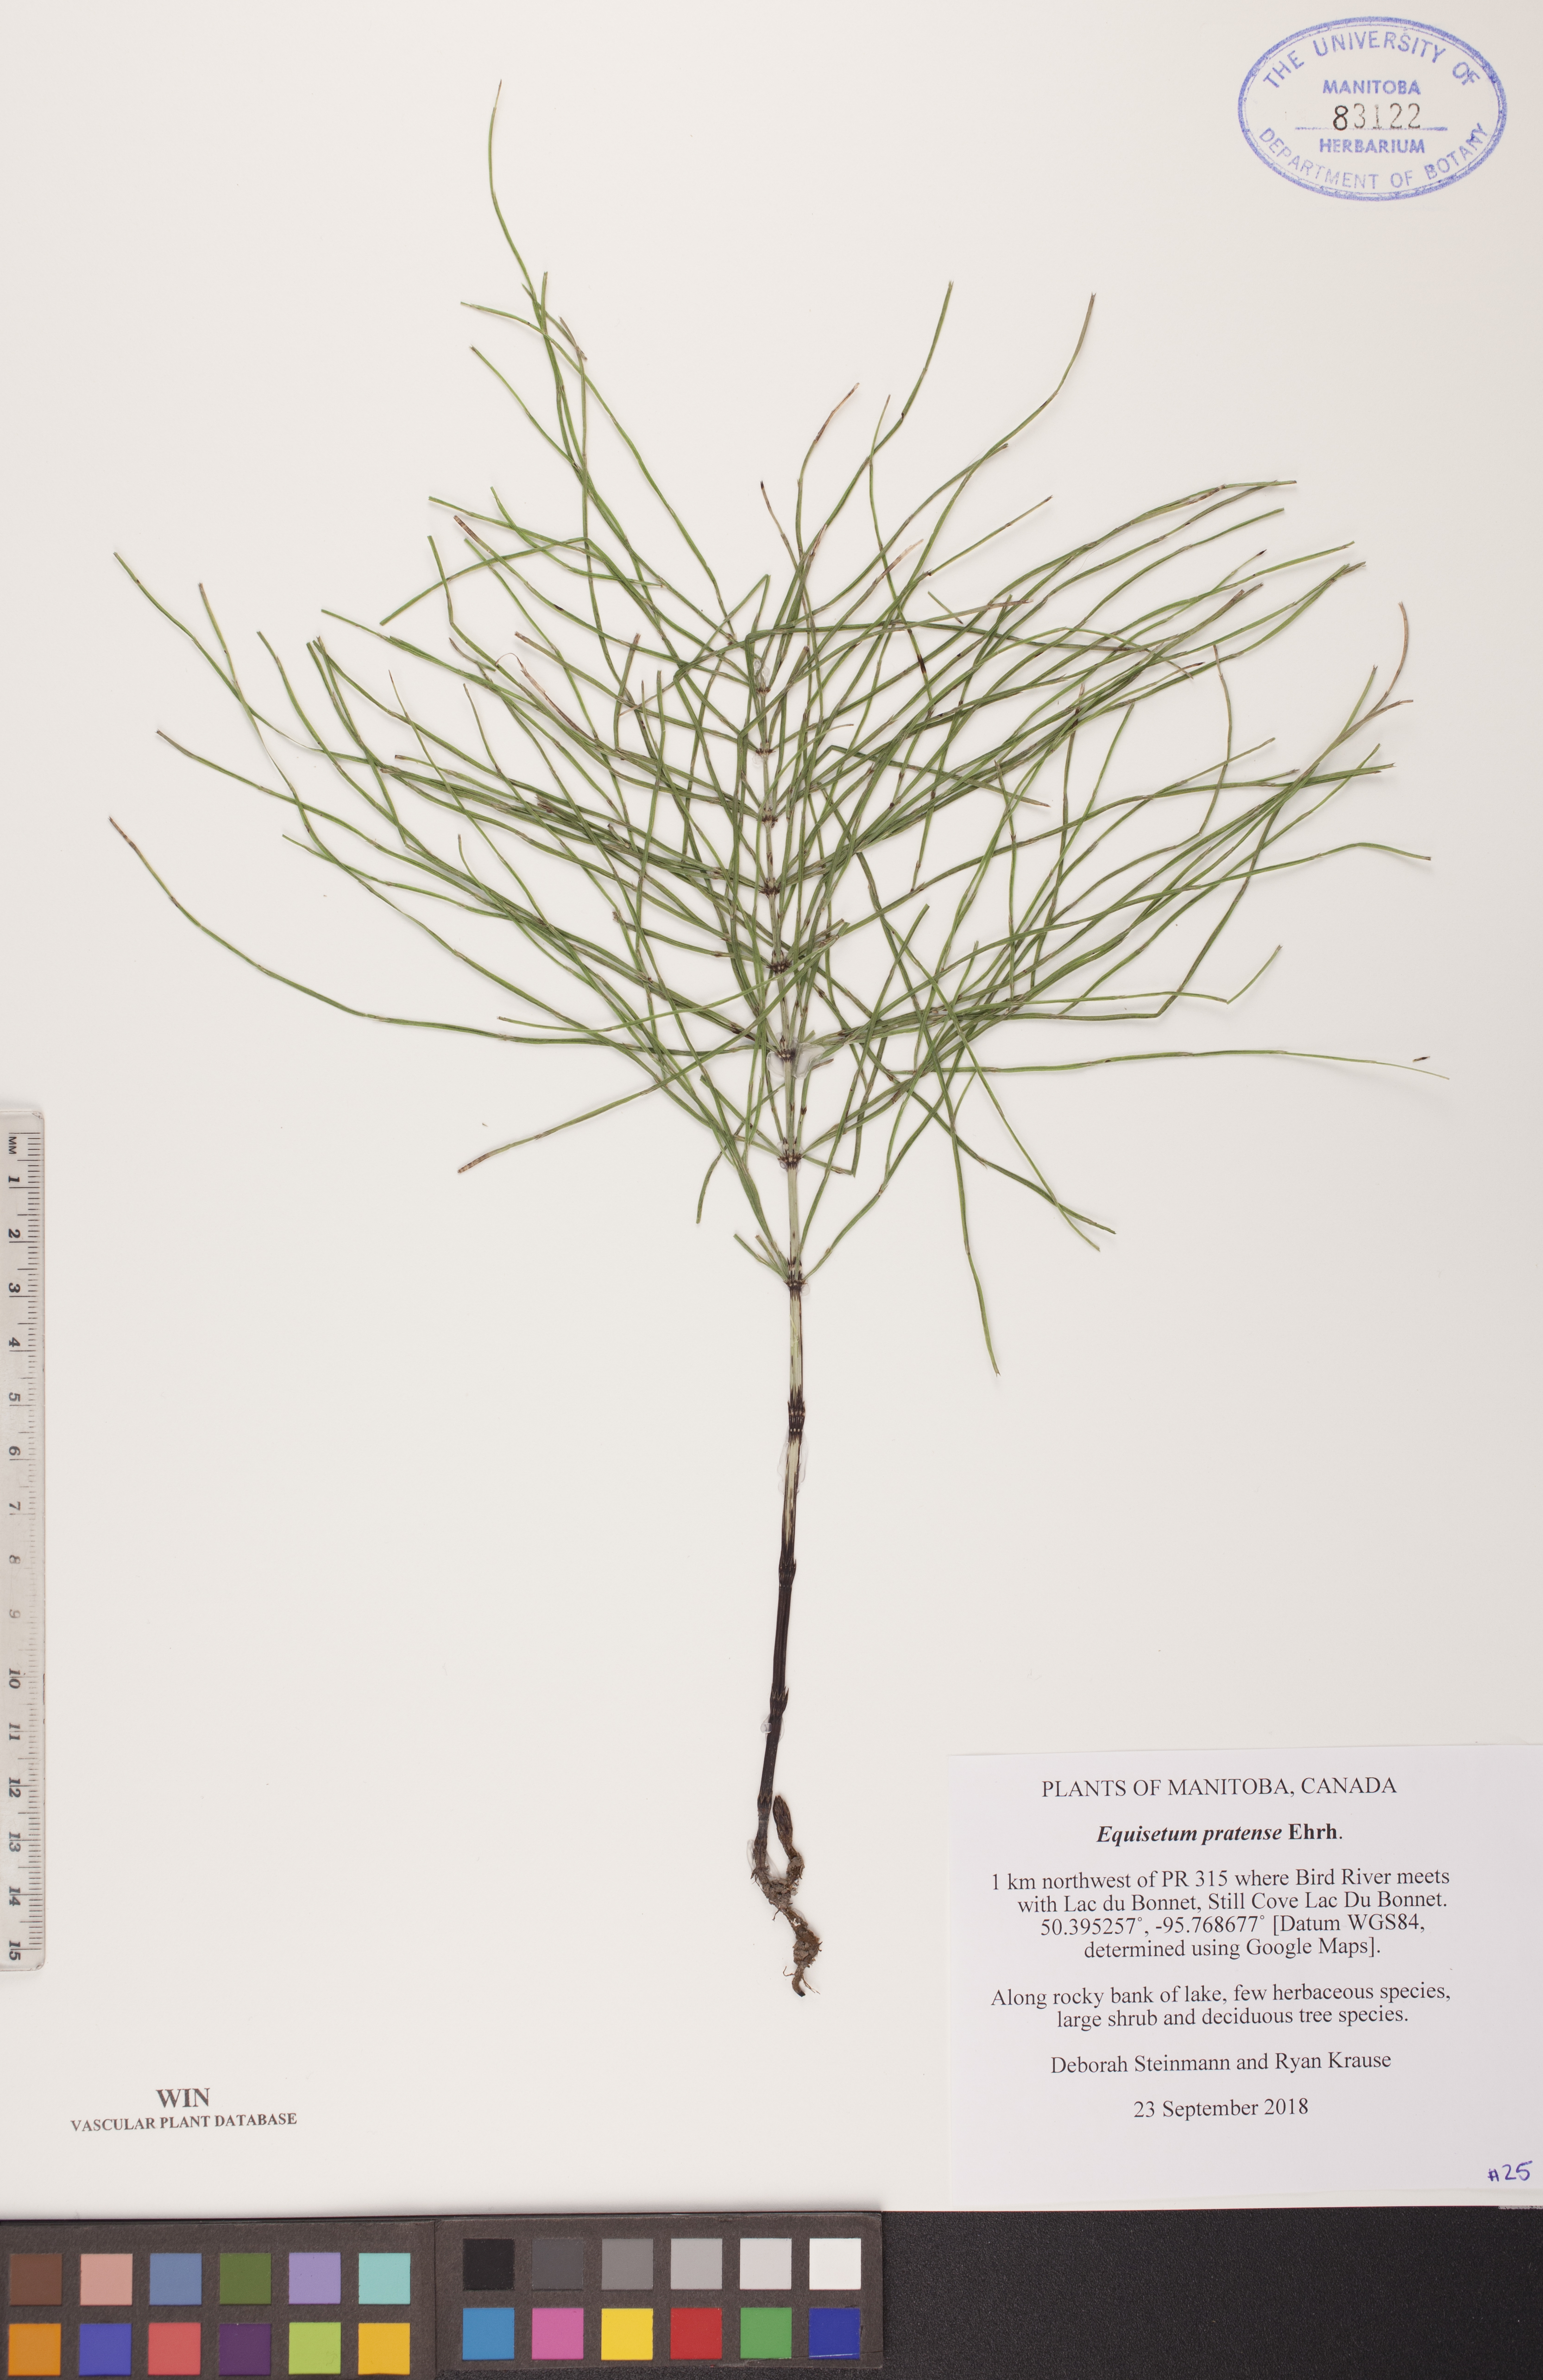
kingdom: Plantae
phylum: Tracheophyta
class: Polypodiopsida
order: Equisetales
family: Equisetaceae
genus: Equisetum
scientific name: Equisetum pratense
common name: Meadow horsetail
